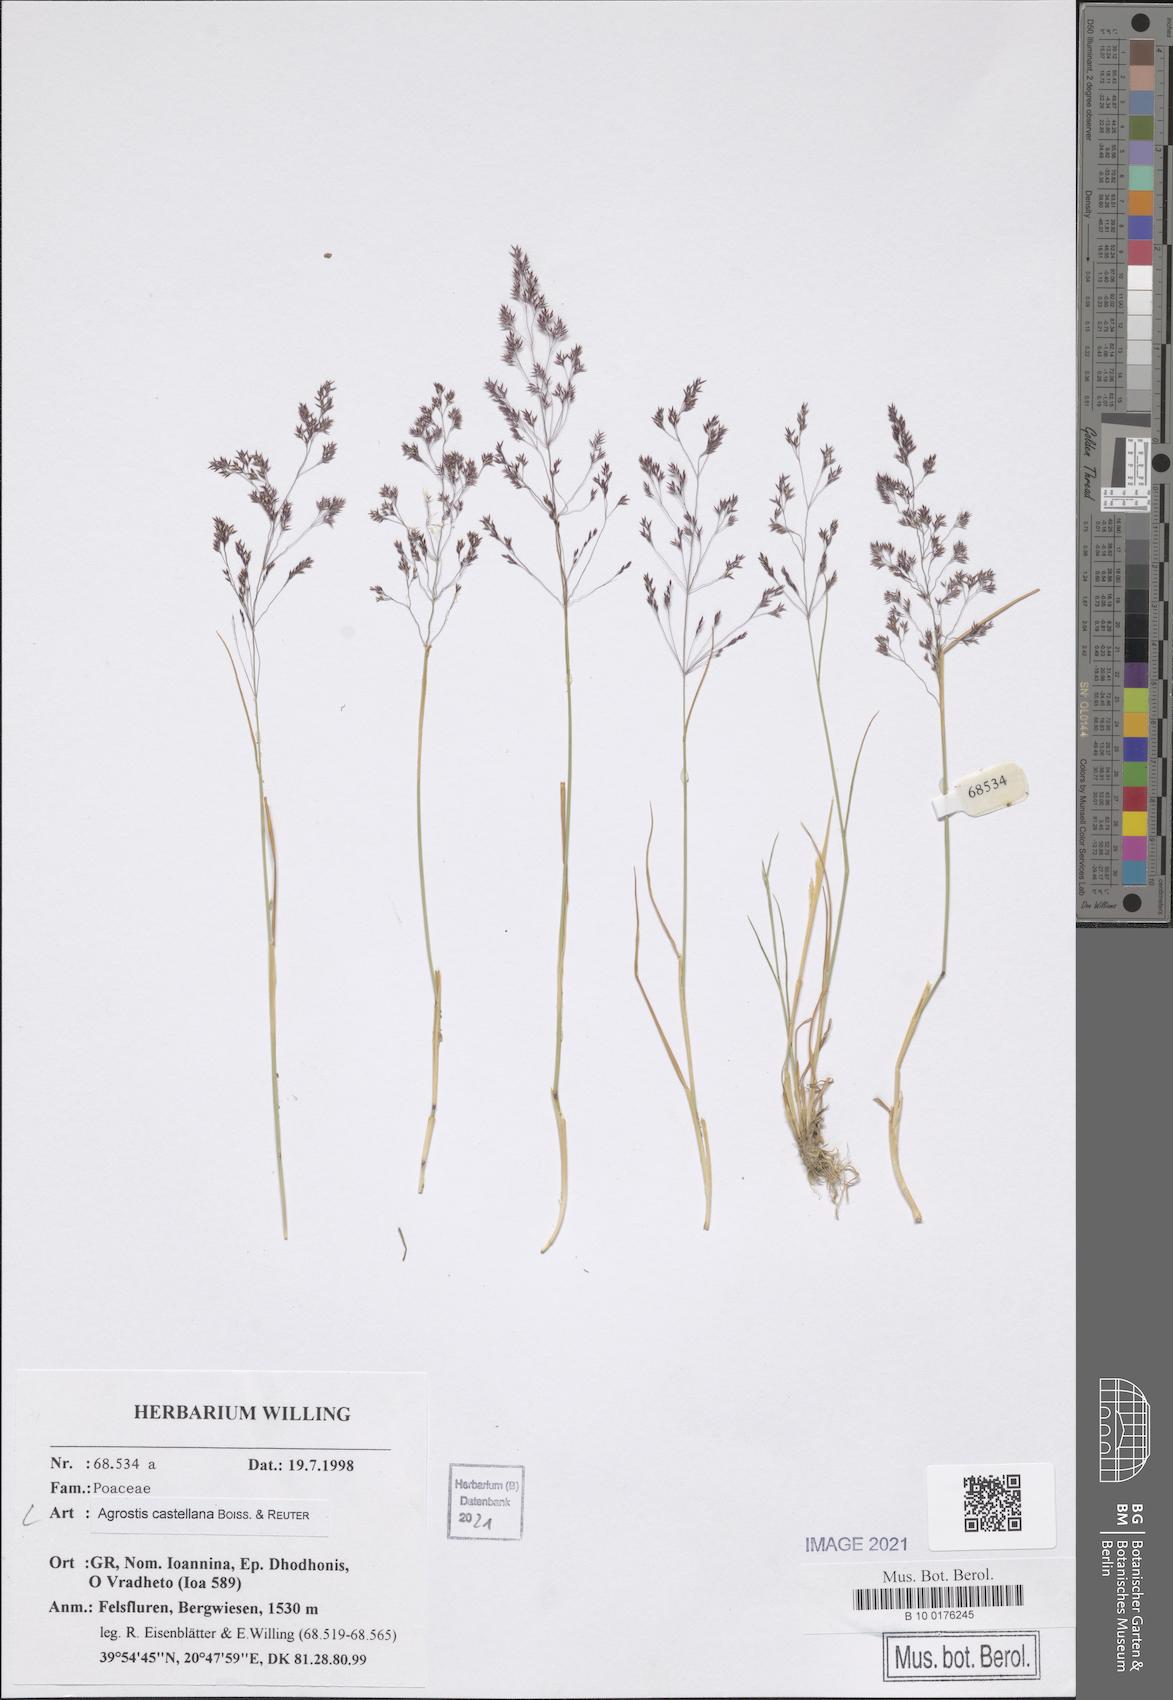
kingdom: Plantae
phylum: Tracheophyta
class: Liliopsida
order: Poales
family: Poaceae
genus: Agrostis
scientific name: Agrostis castellana
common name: Highland bent
